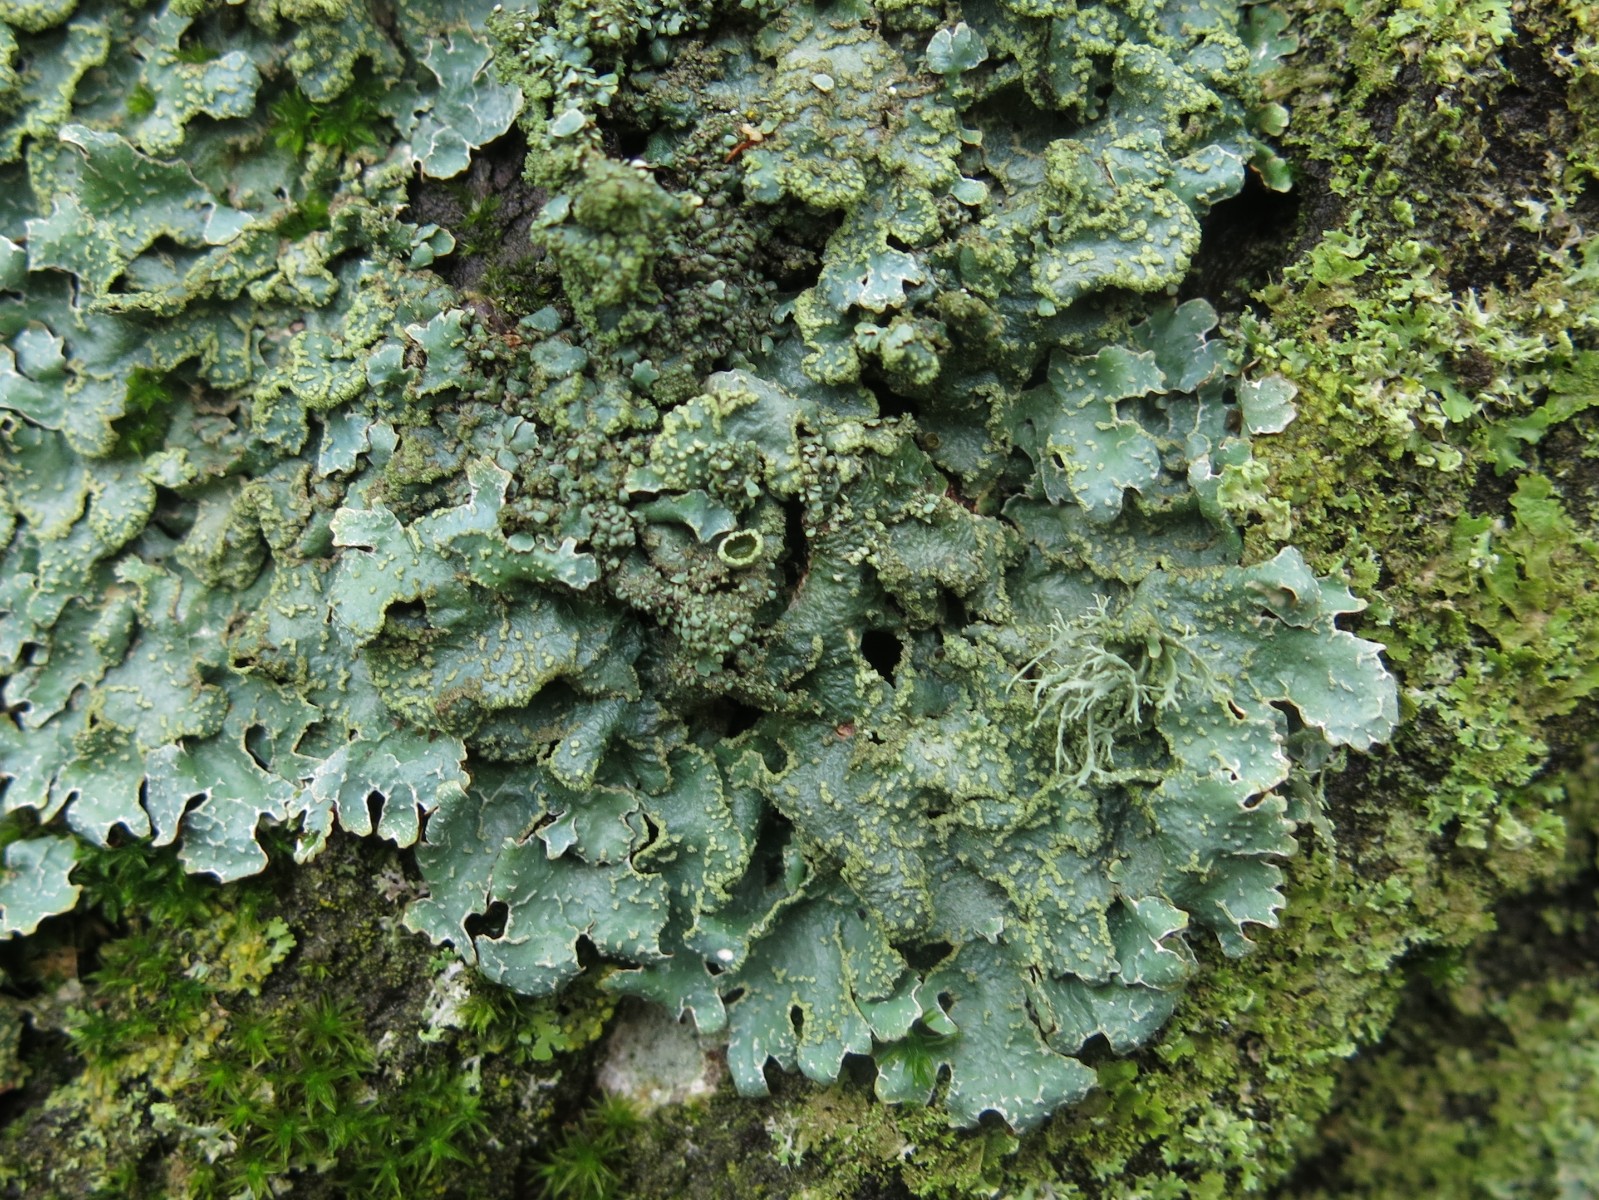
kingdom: Fungi
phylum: Ascomycota
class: Lecanoromycetes
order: Lecanorales
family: Parmeliaceae
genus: Parmelia
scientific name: Parmelia sulcata
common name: rynket skållav
